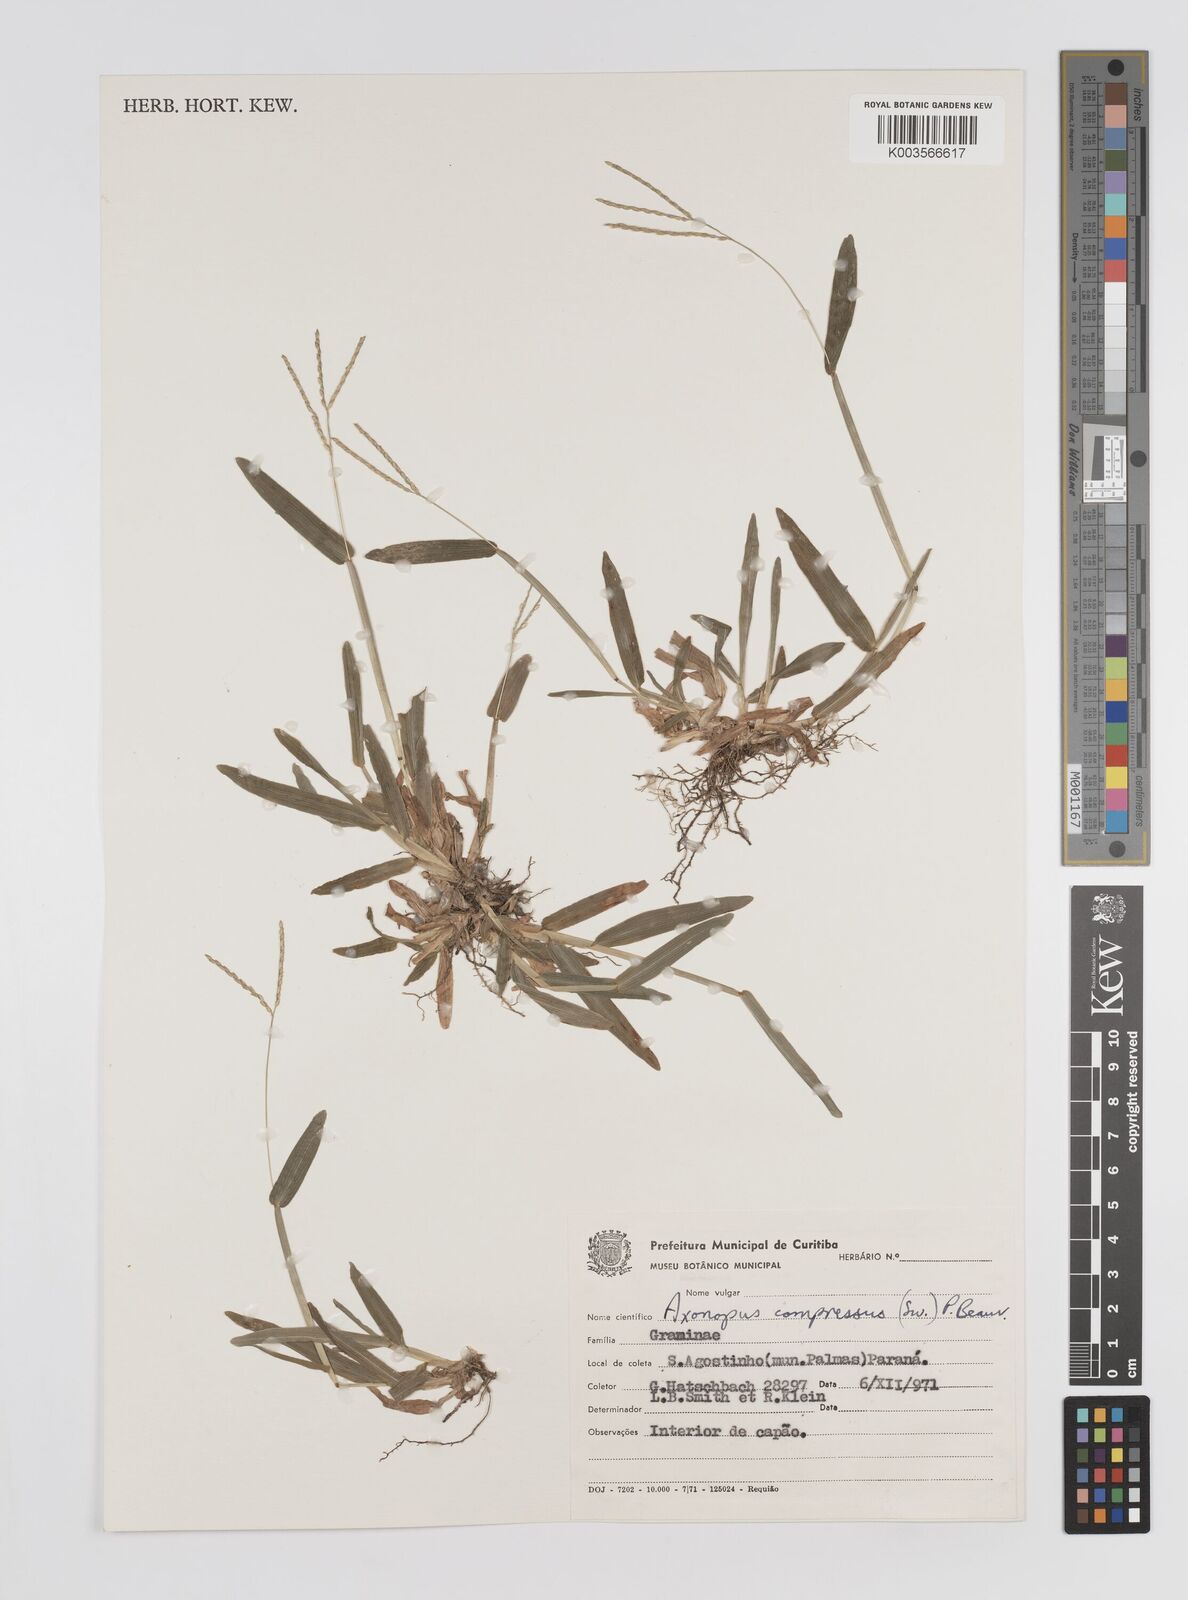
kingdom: Plantae
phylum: Tracheophyta
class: Liliopsida
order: Poales
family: Poaceae
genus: Axonopus
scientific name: Axonopus compressus
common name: American carpet grass
